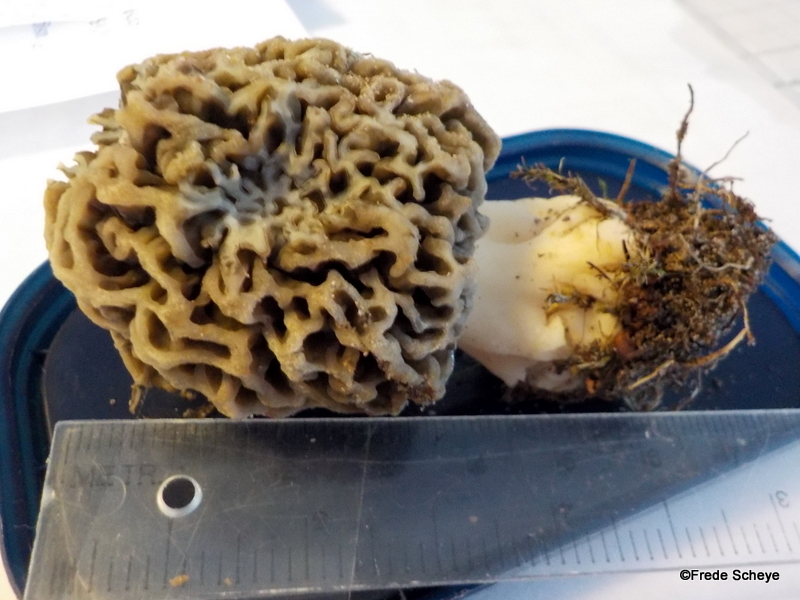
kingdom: Fungi
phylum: Ascomycota
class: Pezizomycetes
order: Pezizales
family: Morchellaceae
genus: Morchella
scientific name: Morchella esculenta
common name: almindelig morkel
